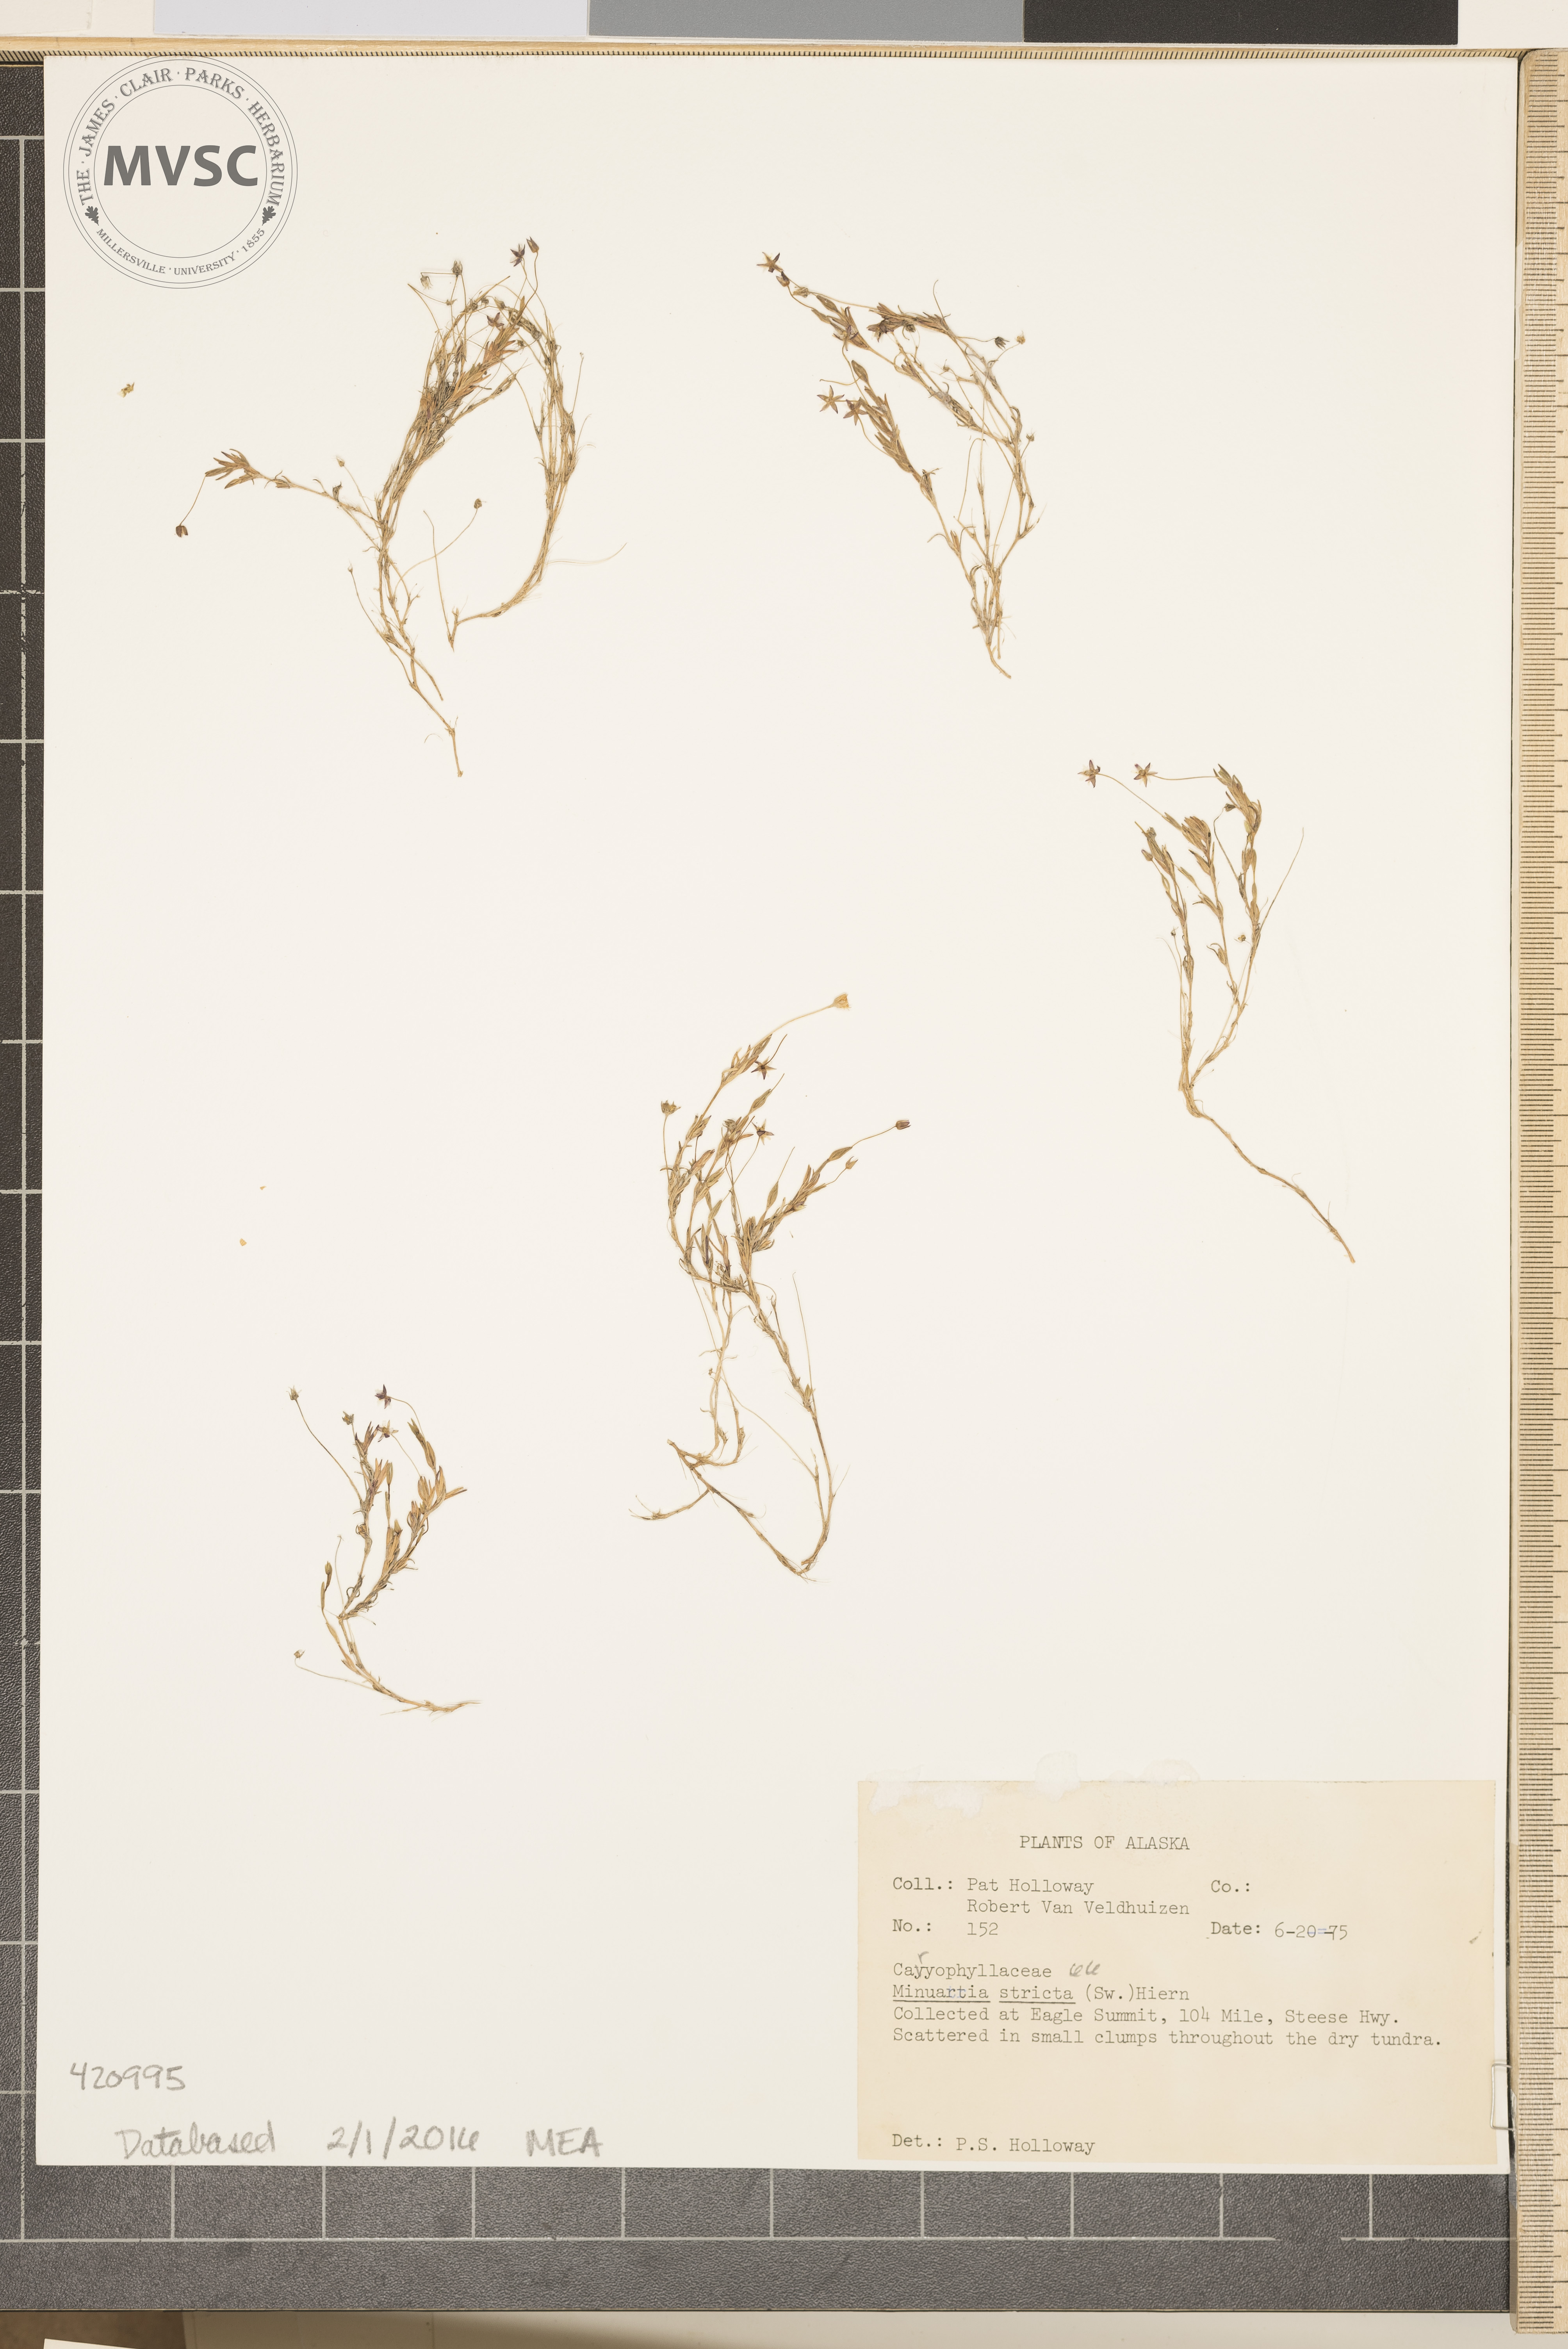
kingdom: Plantae
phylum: Tracheophyta
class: Magnoliopsida
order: Caryophyllales
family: Caryophyllaceae
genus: Sabulina
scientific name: Sabulina stricta
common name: Bog stitchwort
